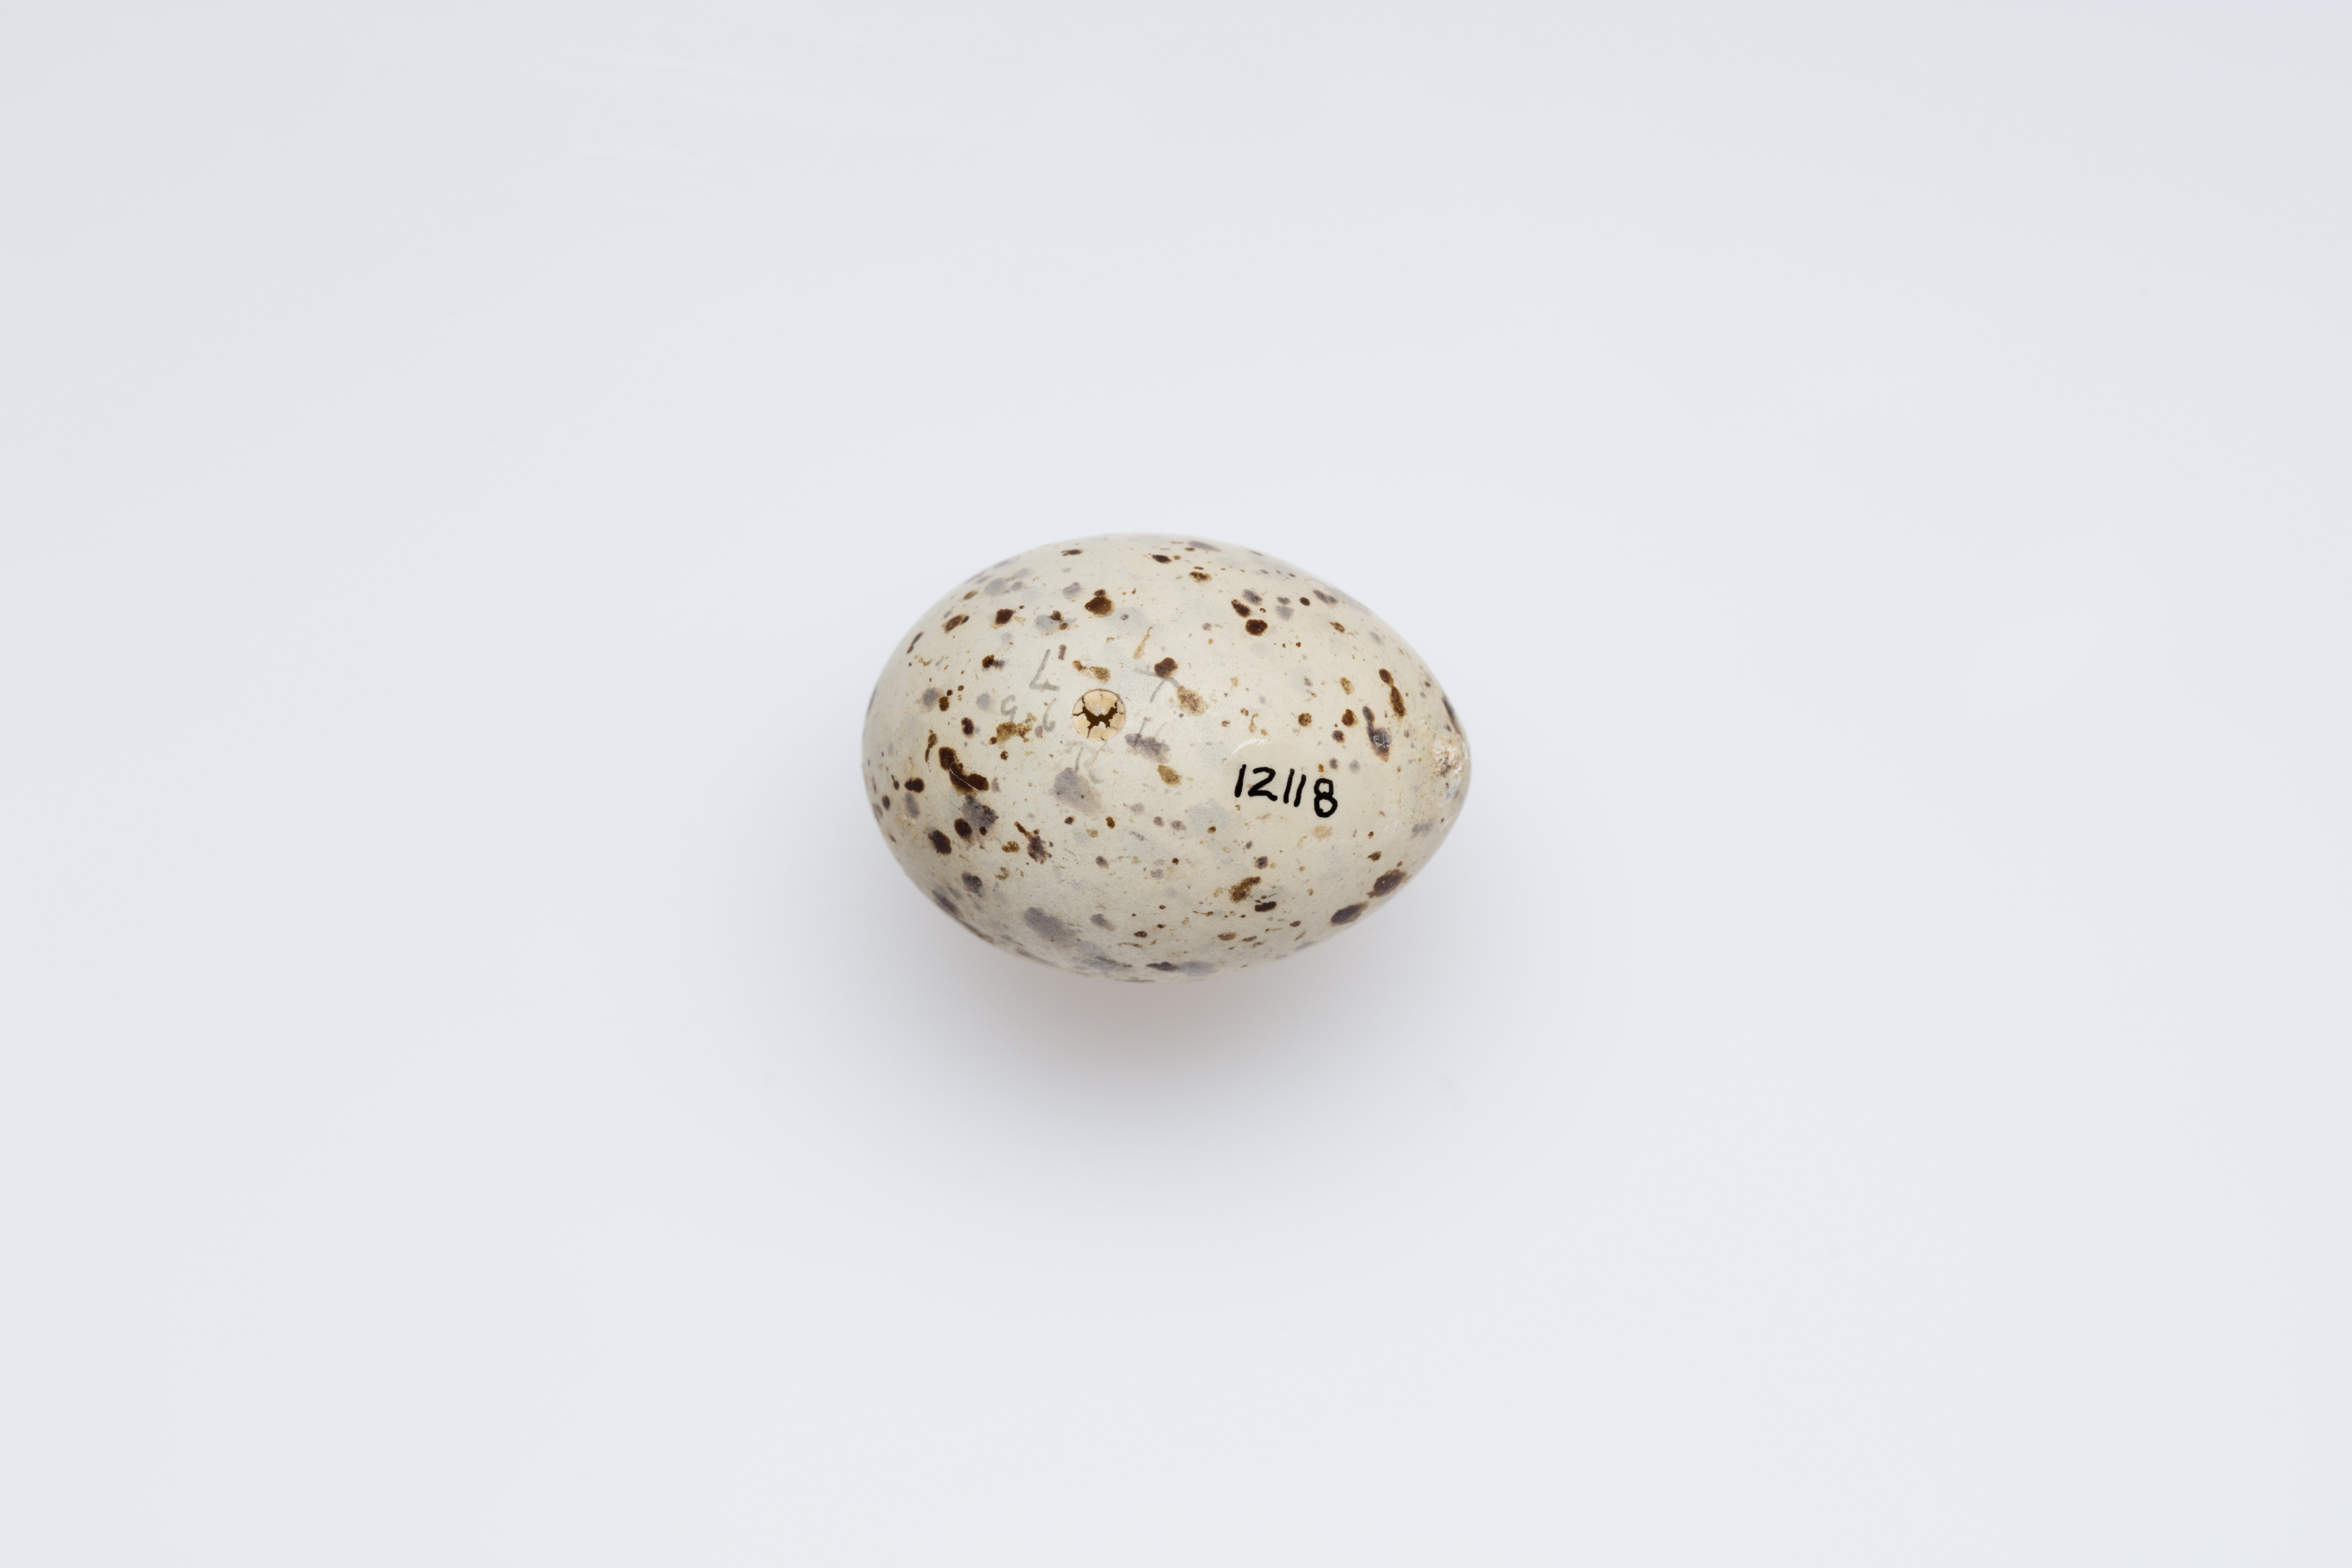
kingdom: Animalia
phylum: Chordata
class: Aves
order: Charadriiformes
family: Laridae
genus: Sternula
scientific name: Sternula albifrons
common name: Little tern
